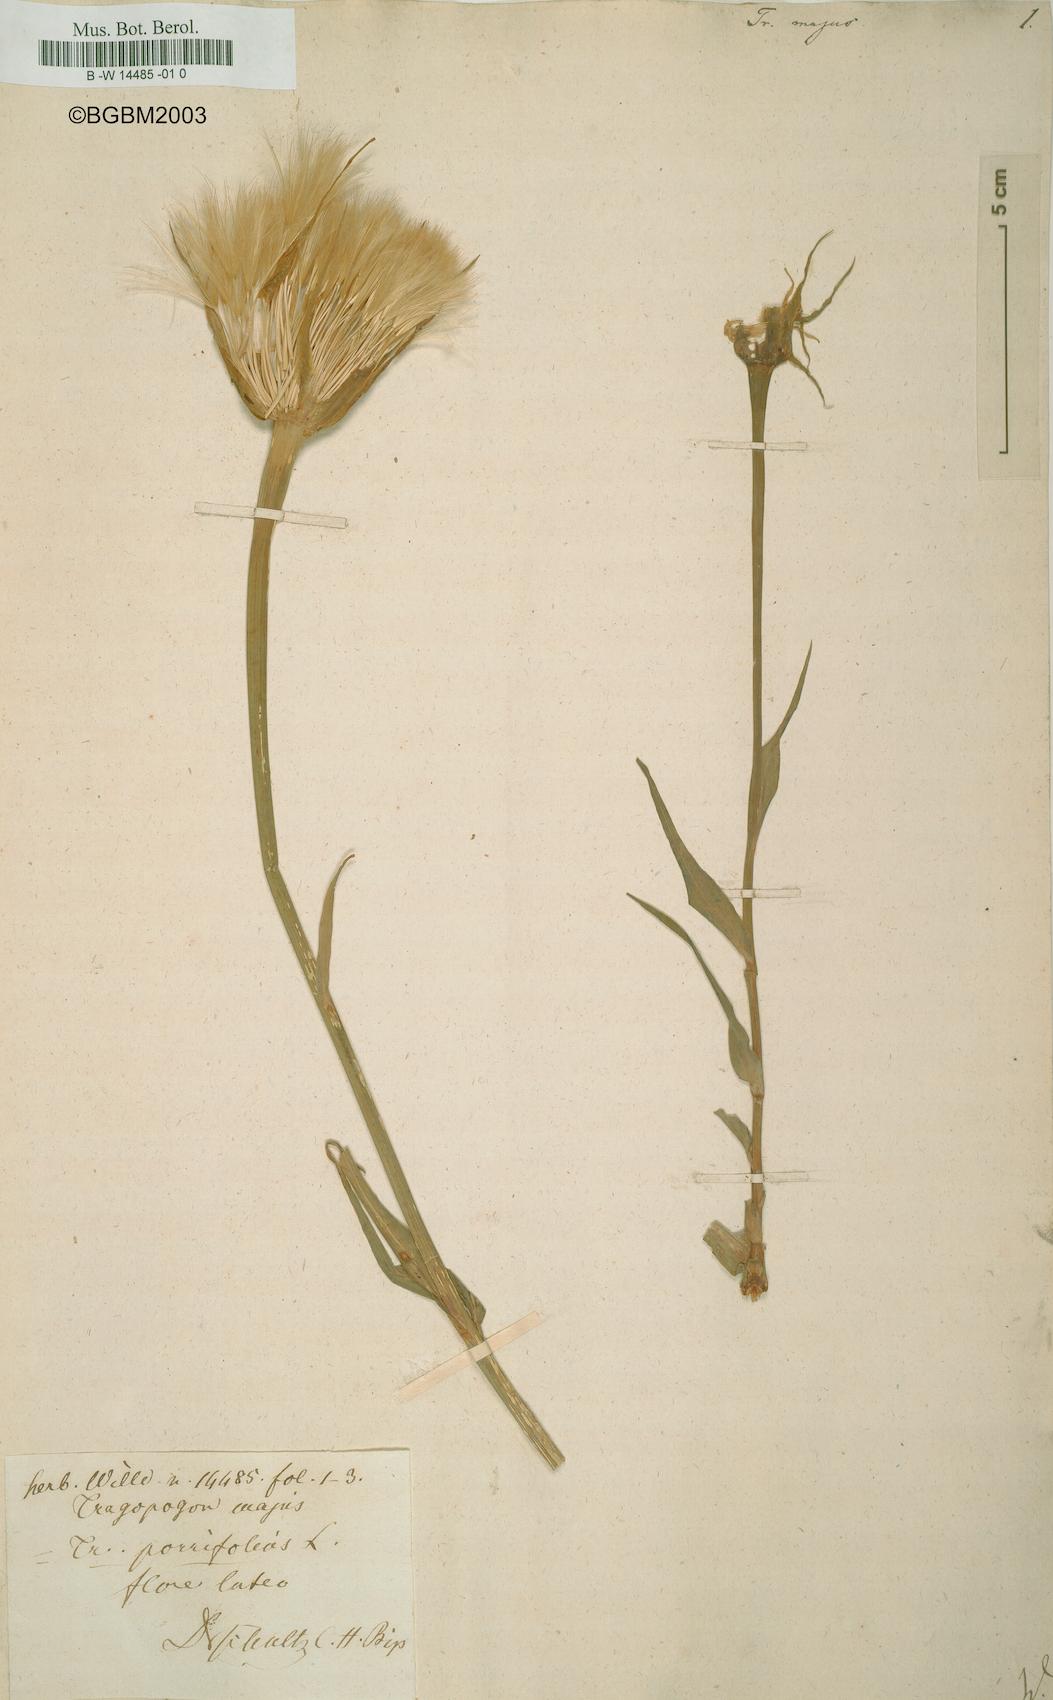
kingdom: Plantae
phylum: Tracheophyta
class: Magnoliopsida
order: Asterales
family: Asteraceae
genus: Tragopogon
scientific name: Tragopogon dubius
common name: Yellow salsify
